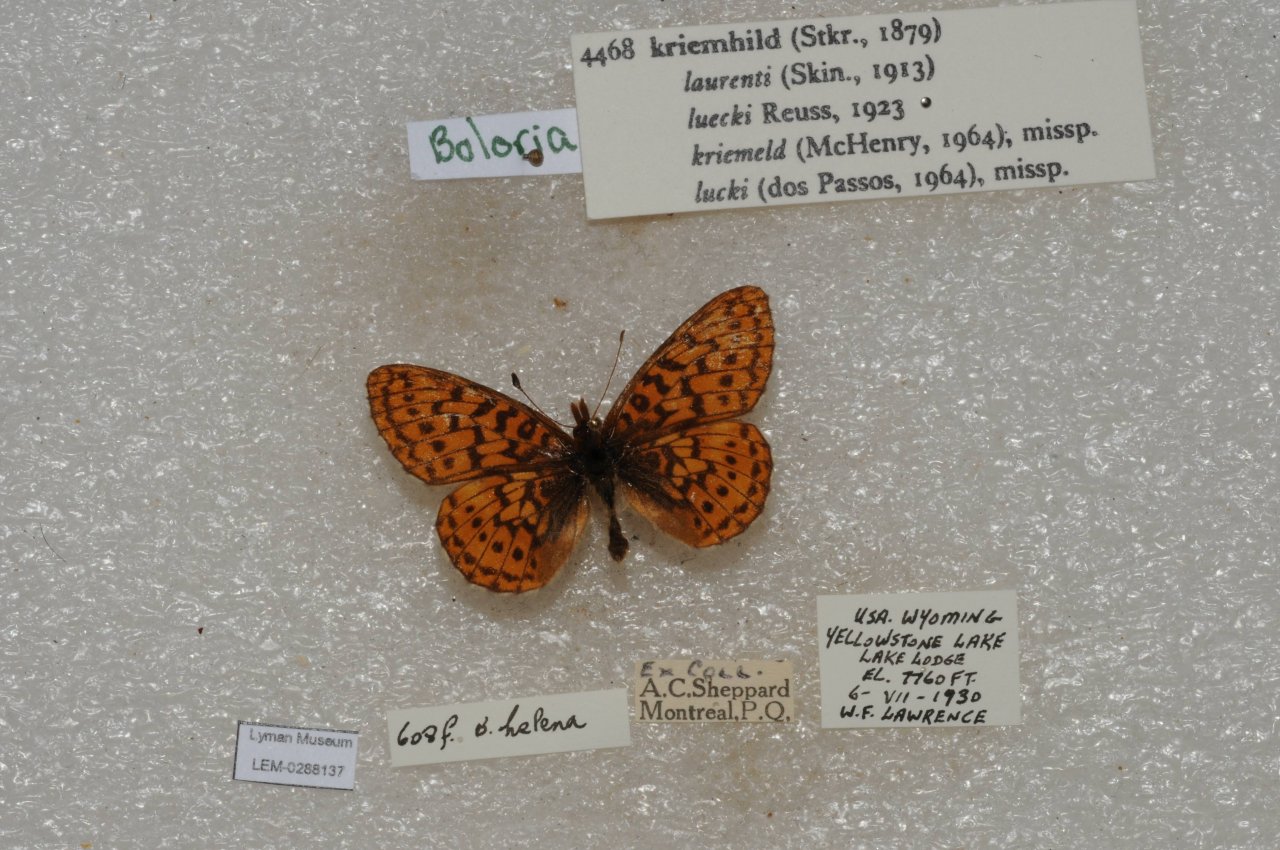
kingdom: Animalia
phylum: Arthropoda
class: Insecta
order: Lepidoptera
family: Nymphalidae
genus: Boloria
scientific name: Boloria kriemhild
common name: Relict Fritillary
